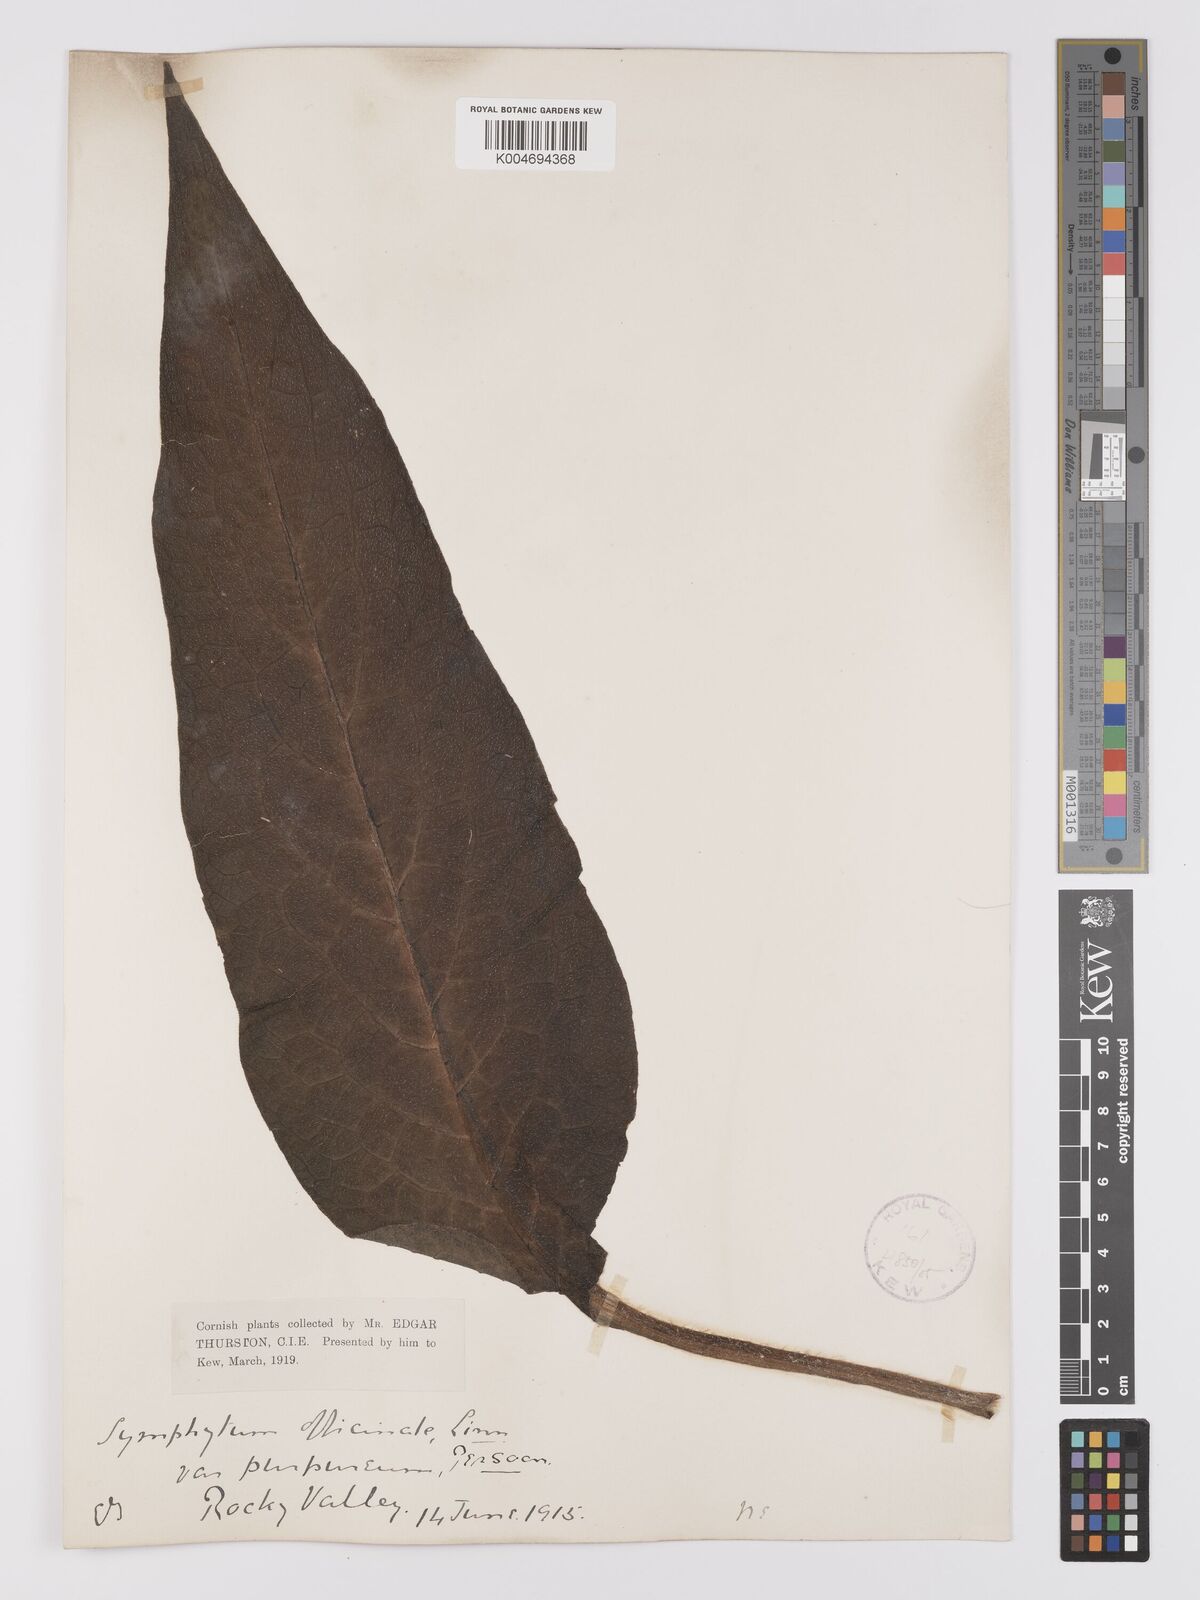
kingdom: Plantae
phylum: Tracheophyta
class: Magnoliopsida
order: Boraginales
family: Boraginaceae
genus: Symphytum
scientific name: Symphytum officinale
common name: Common comfrey
